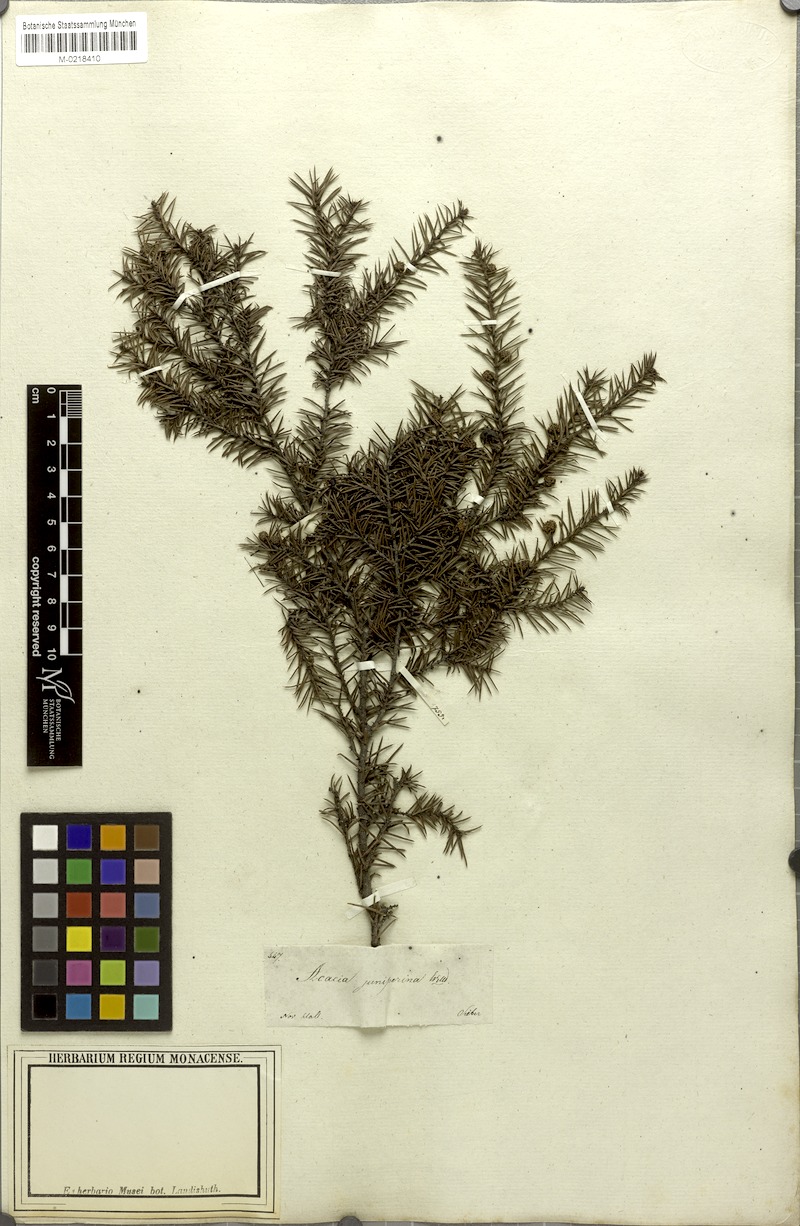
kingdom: Plantae
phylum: Tracheophyta
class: Magnoliopsida
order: Fabales
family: Fabaceae
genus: Acacia
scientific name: Acacia echinula
